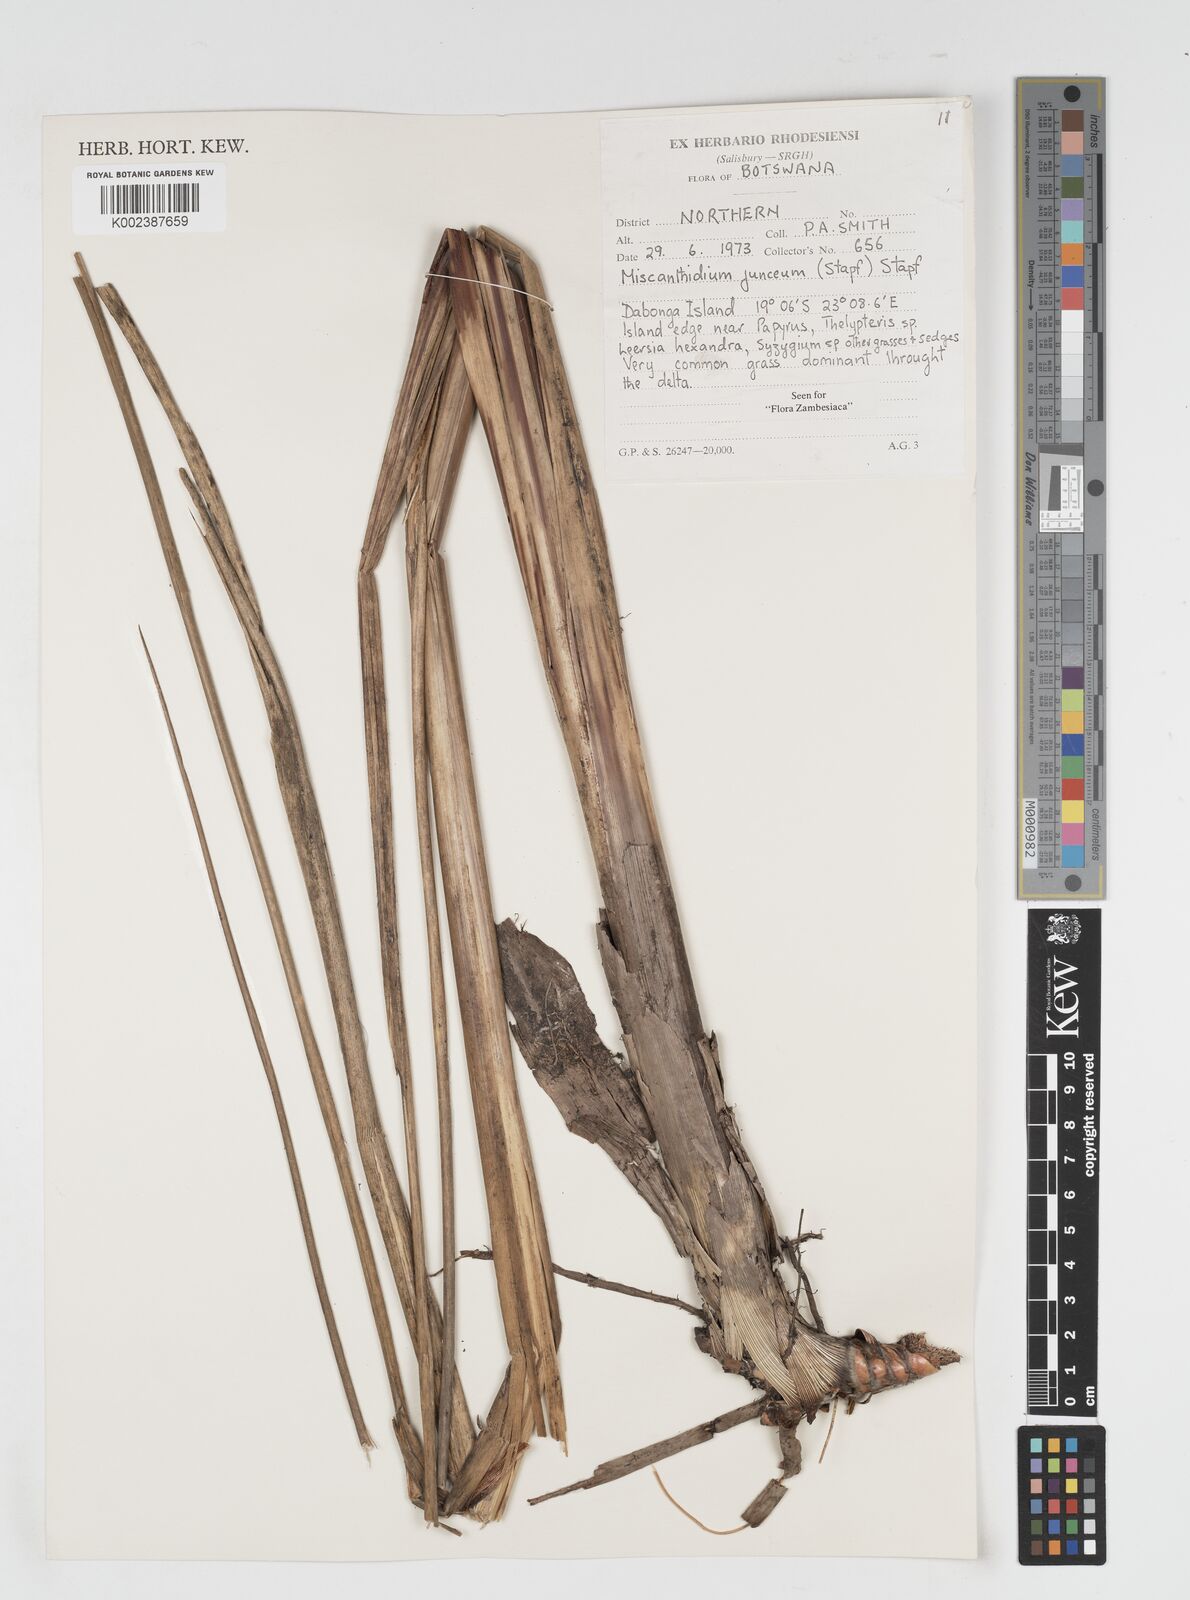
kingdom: Plantae
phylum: Tracheophyta
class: Liliopsida
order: Poales
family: Poaceae
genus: Miscanthidium
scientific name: Miscanthidium junceum
